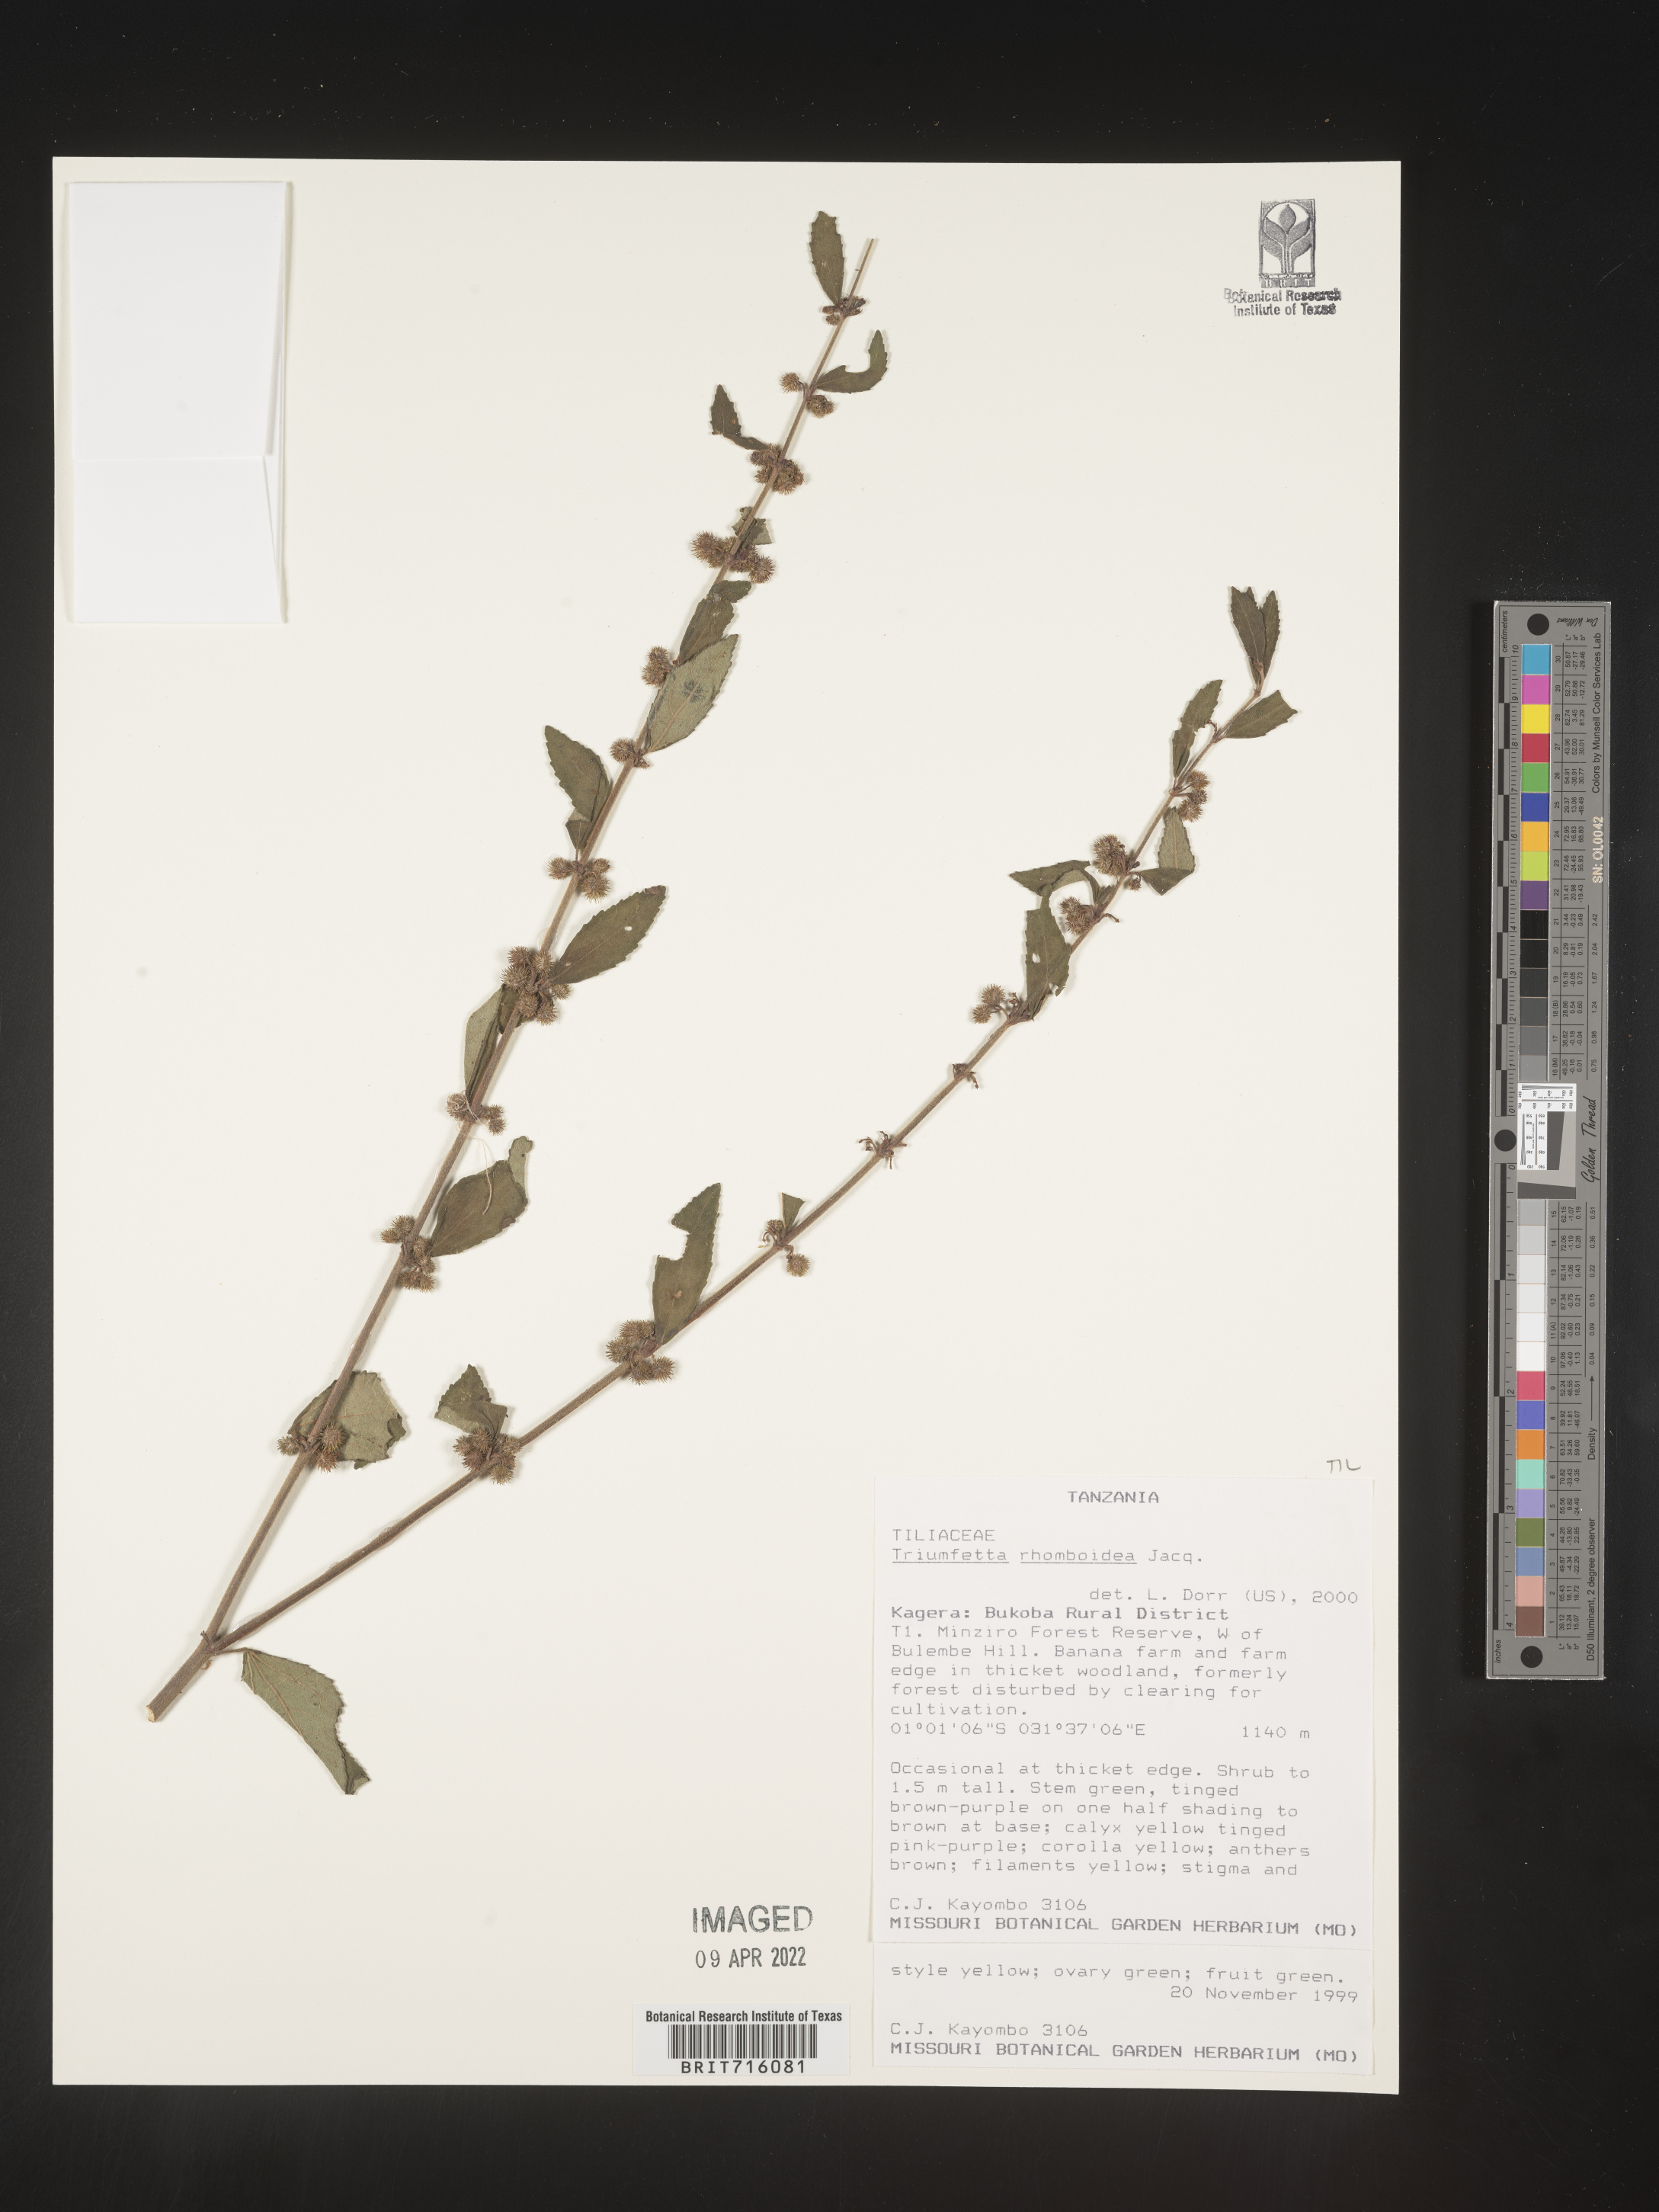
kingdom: Plantae
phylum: Tracheophyta
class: Magnoliopsida
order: Malvales
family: Malvaceae
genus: Triumfetta
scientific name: Triumfetta rhomboidea
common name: Diamond burbark
